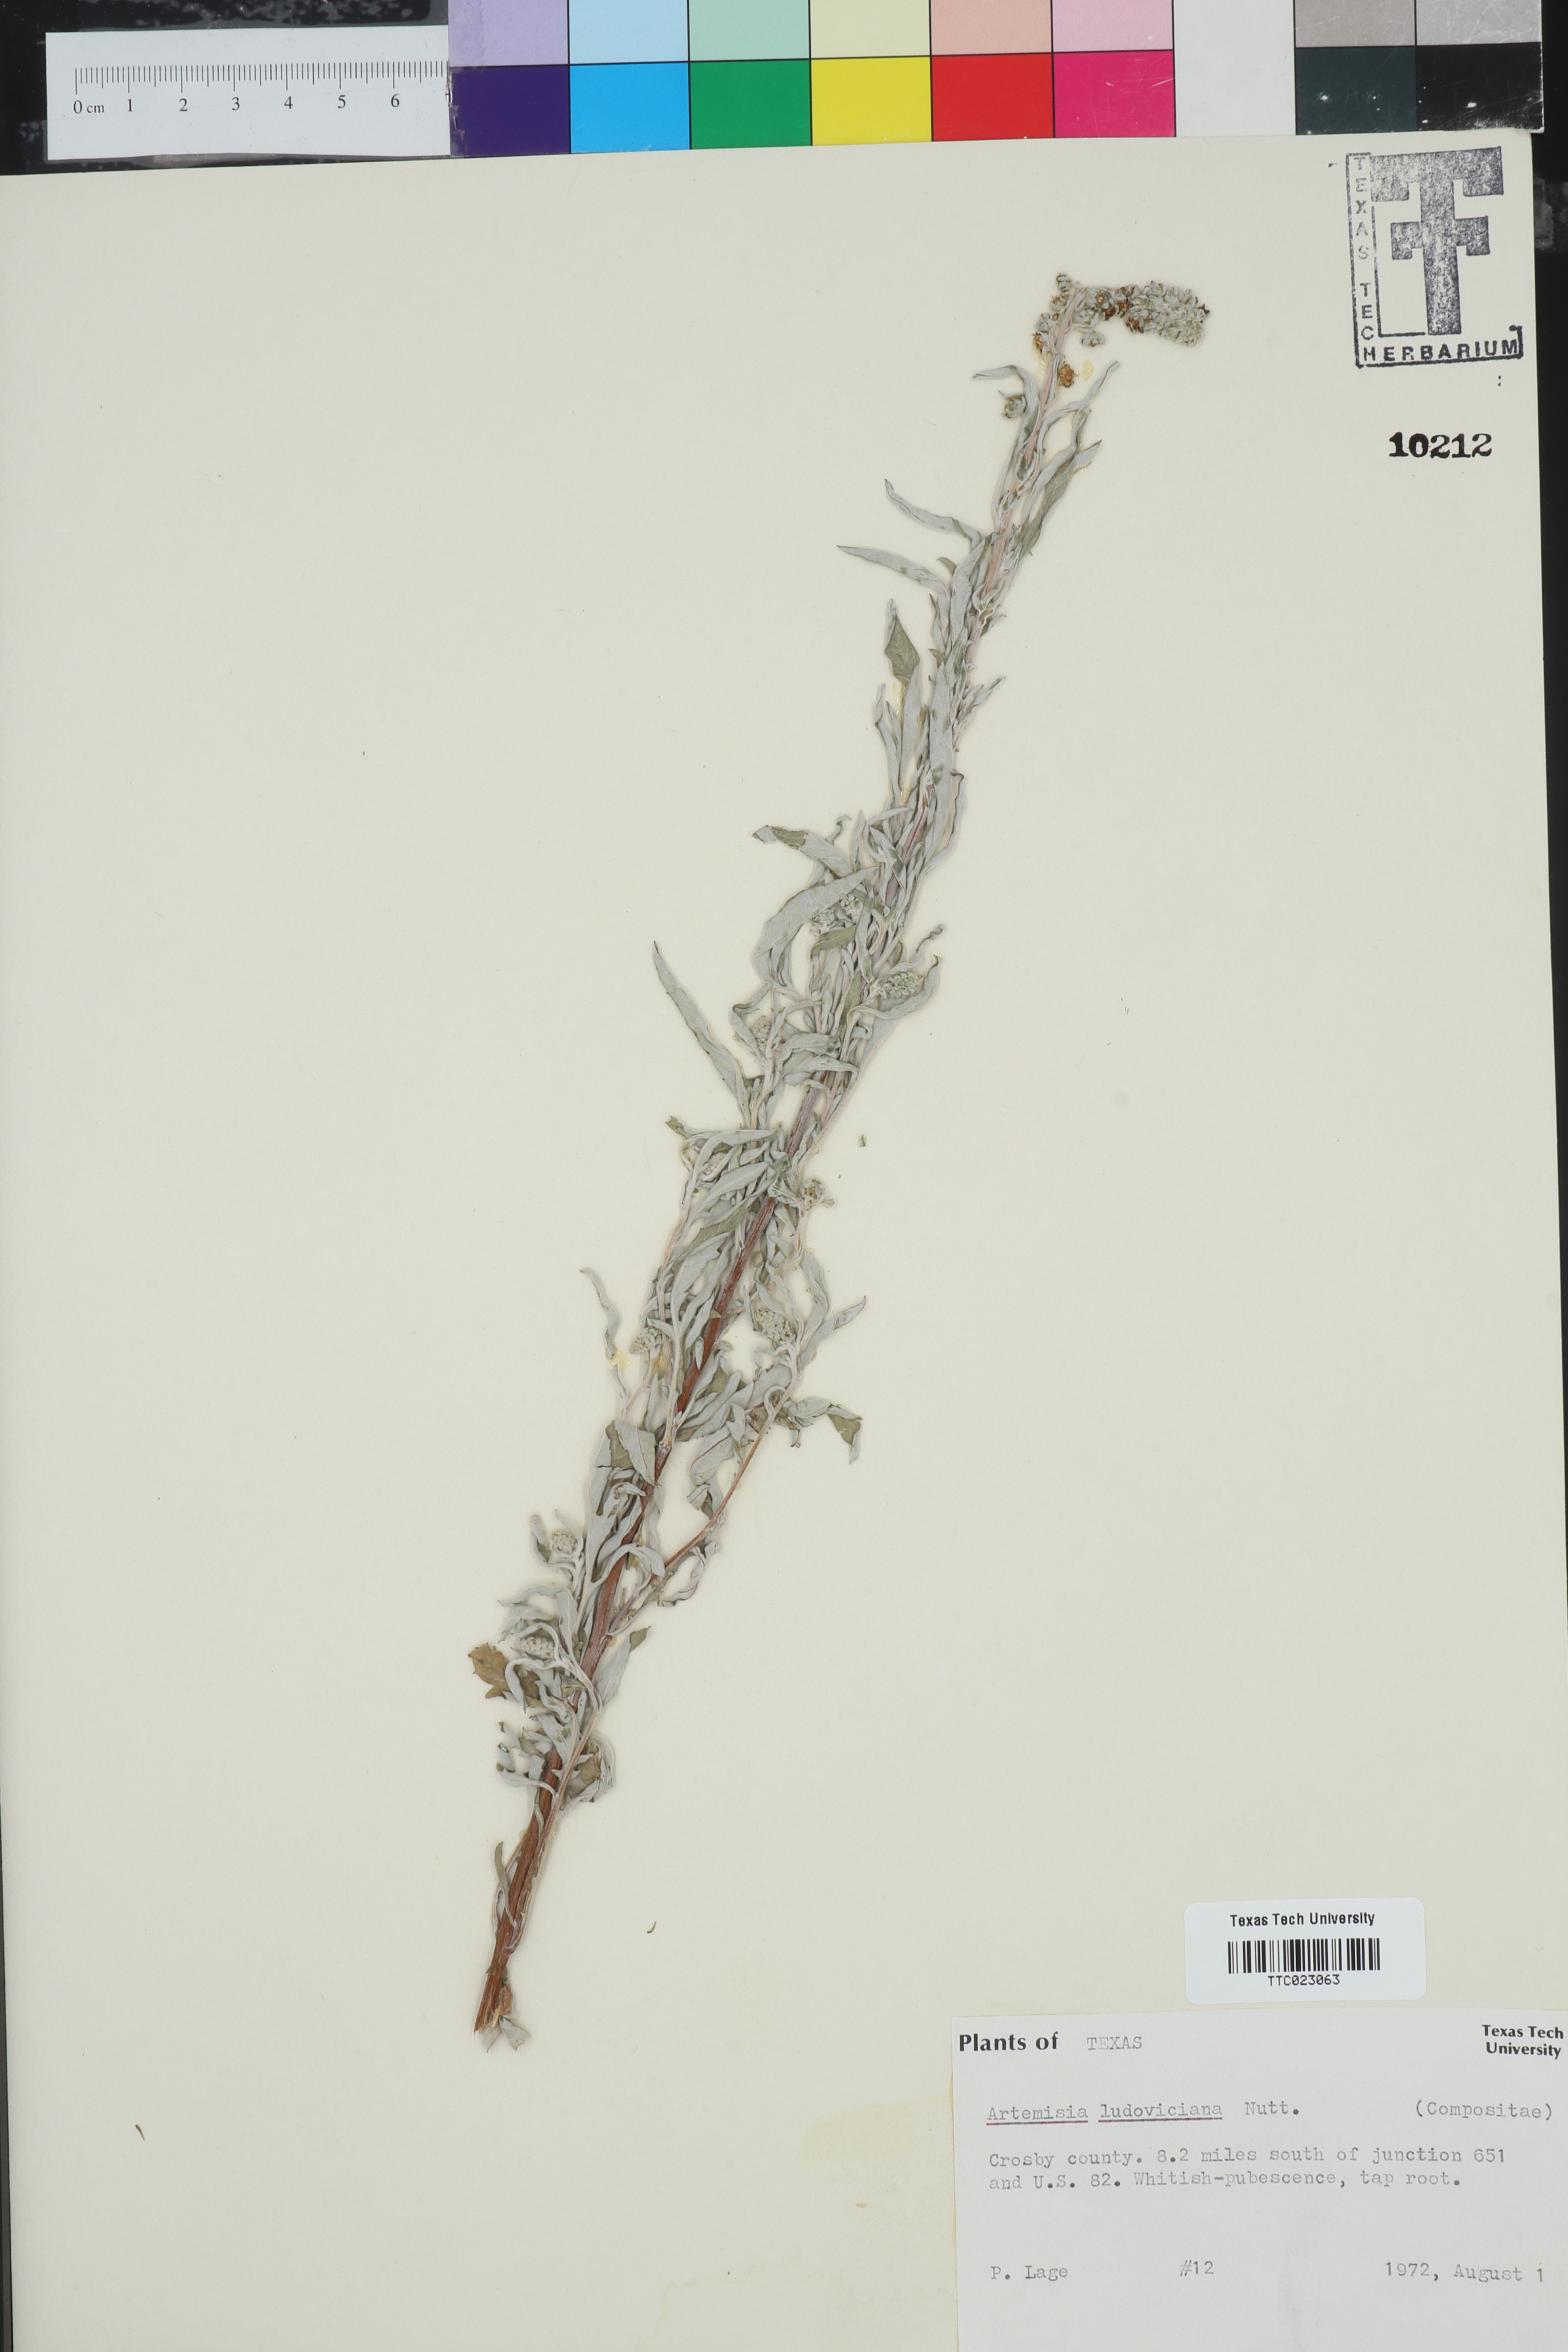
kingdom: Plantae
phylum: Tracheophyta
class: Magnoliopsida
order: Asterales
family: Asteraceae
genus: Artemisia
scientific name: Artemisia ludoviciana
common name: Western mugwort
